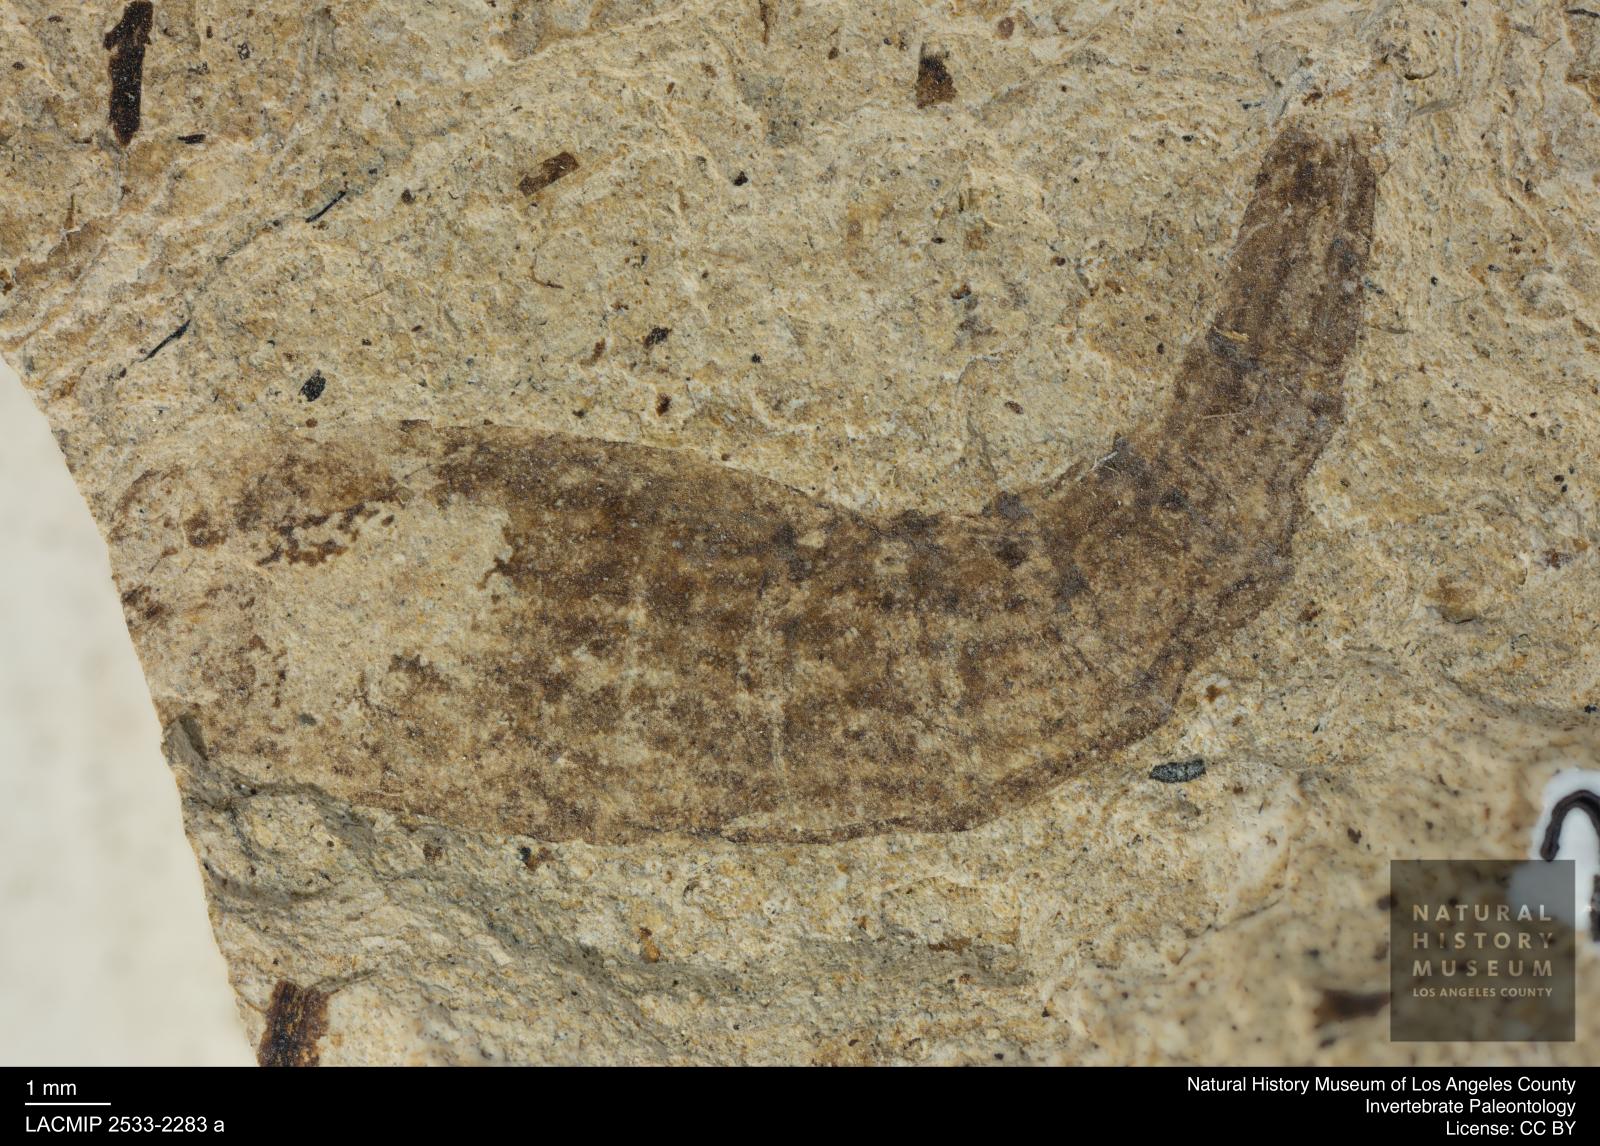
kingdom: Animalia
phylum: Arthropoda
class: Insecta
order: Diptera
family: Stratiomyidae
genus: Odontomyia
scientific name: Odontomyia
